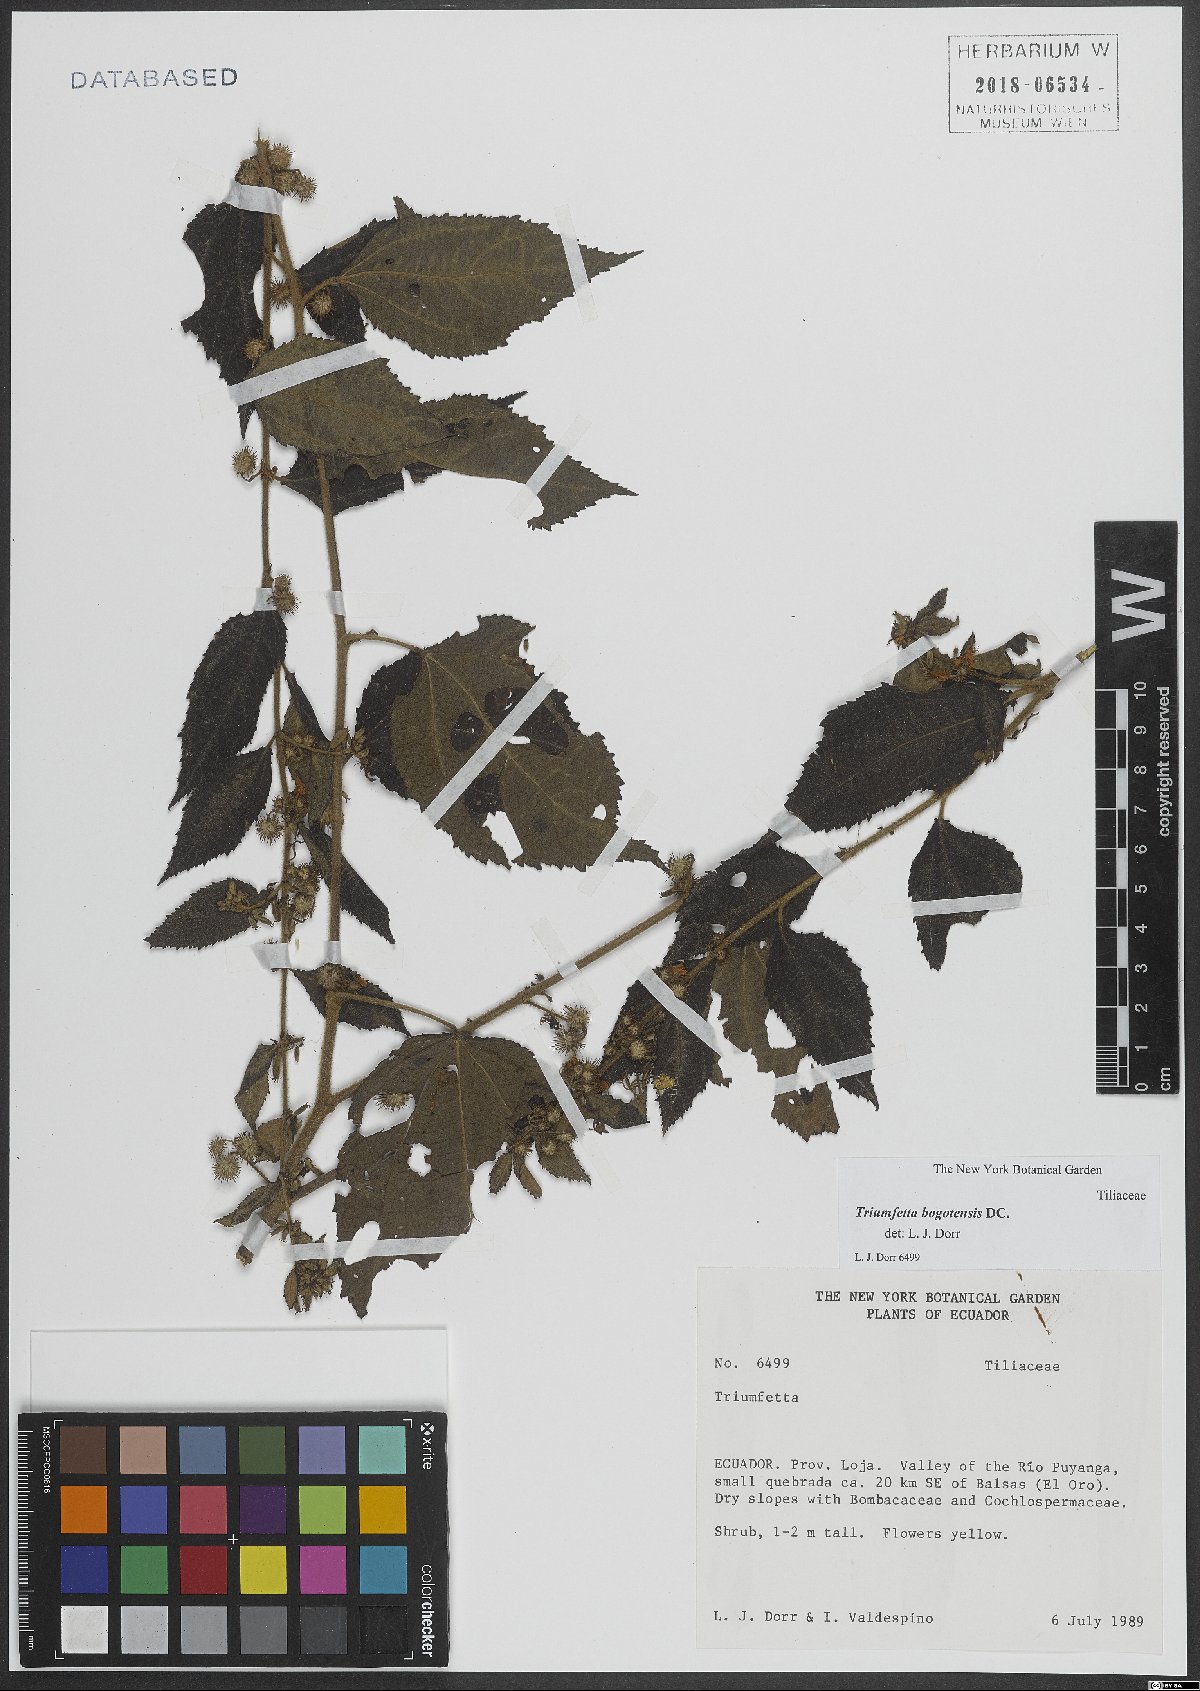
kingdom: Plantae
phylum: Tracheophyta
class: Magnoliopsida
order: Malvales
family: Malvaceae
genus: Triumfetta
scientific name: Triumfetta bogotensis
